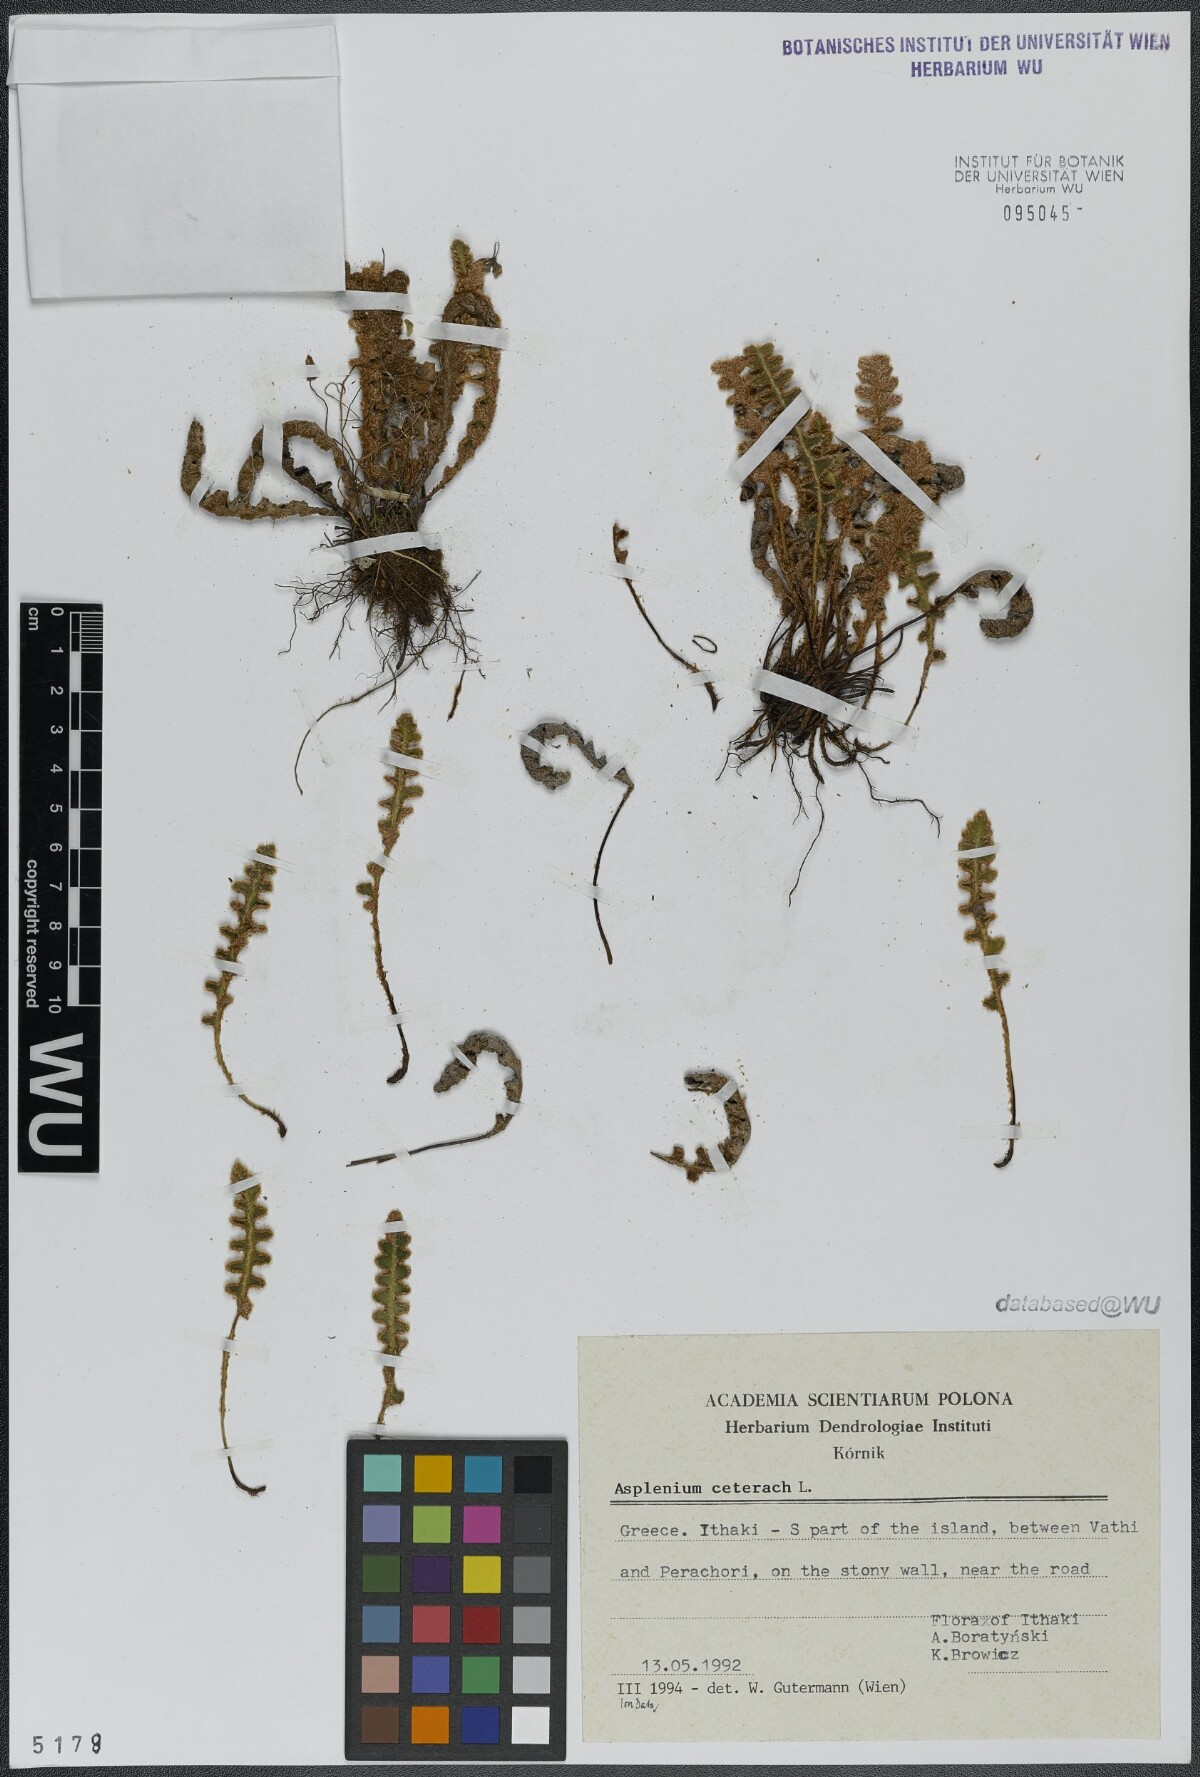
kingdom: Plantae
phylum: Tracheophyta
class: Polypodiopsida
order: Polypodiales
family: Aspleniaceae
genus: Asplenium
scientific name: Asplenium ceterach
